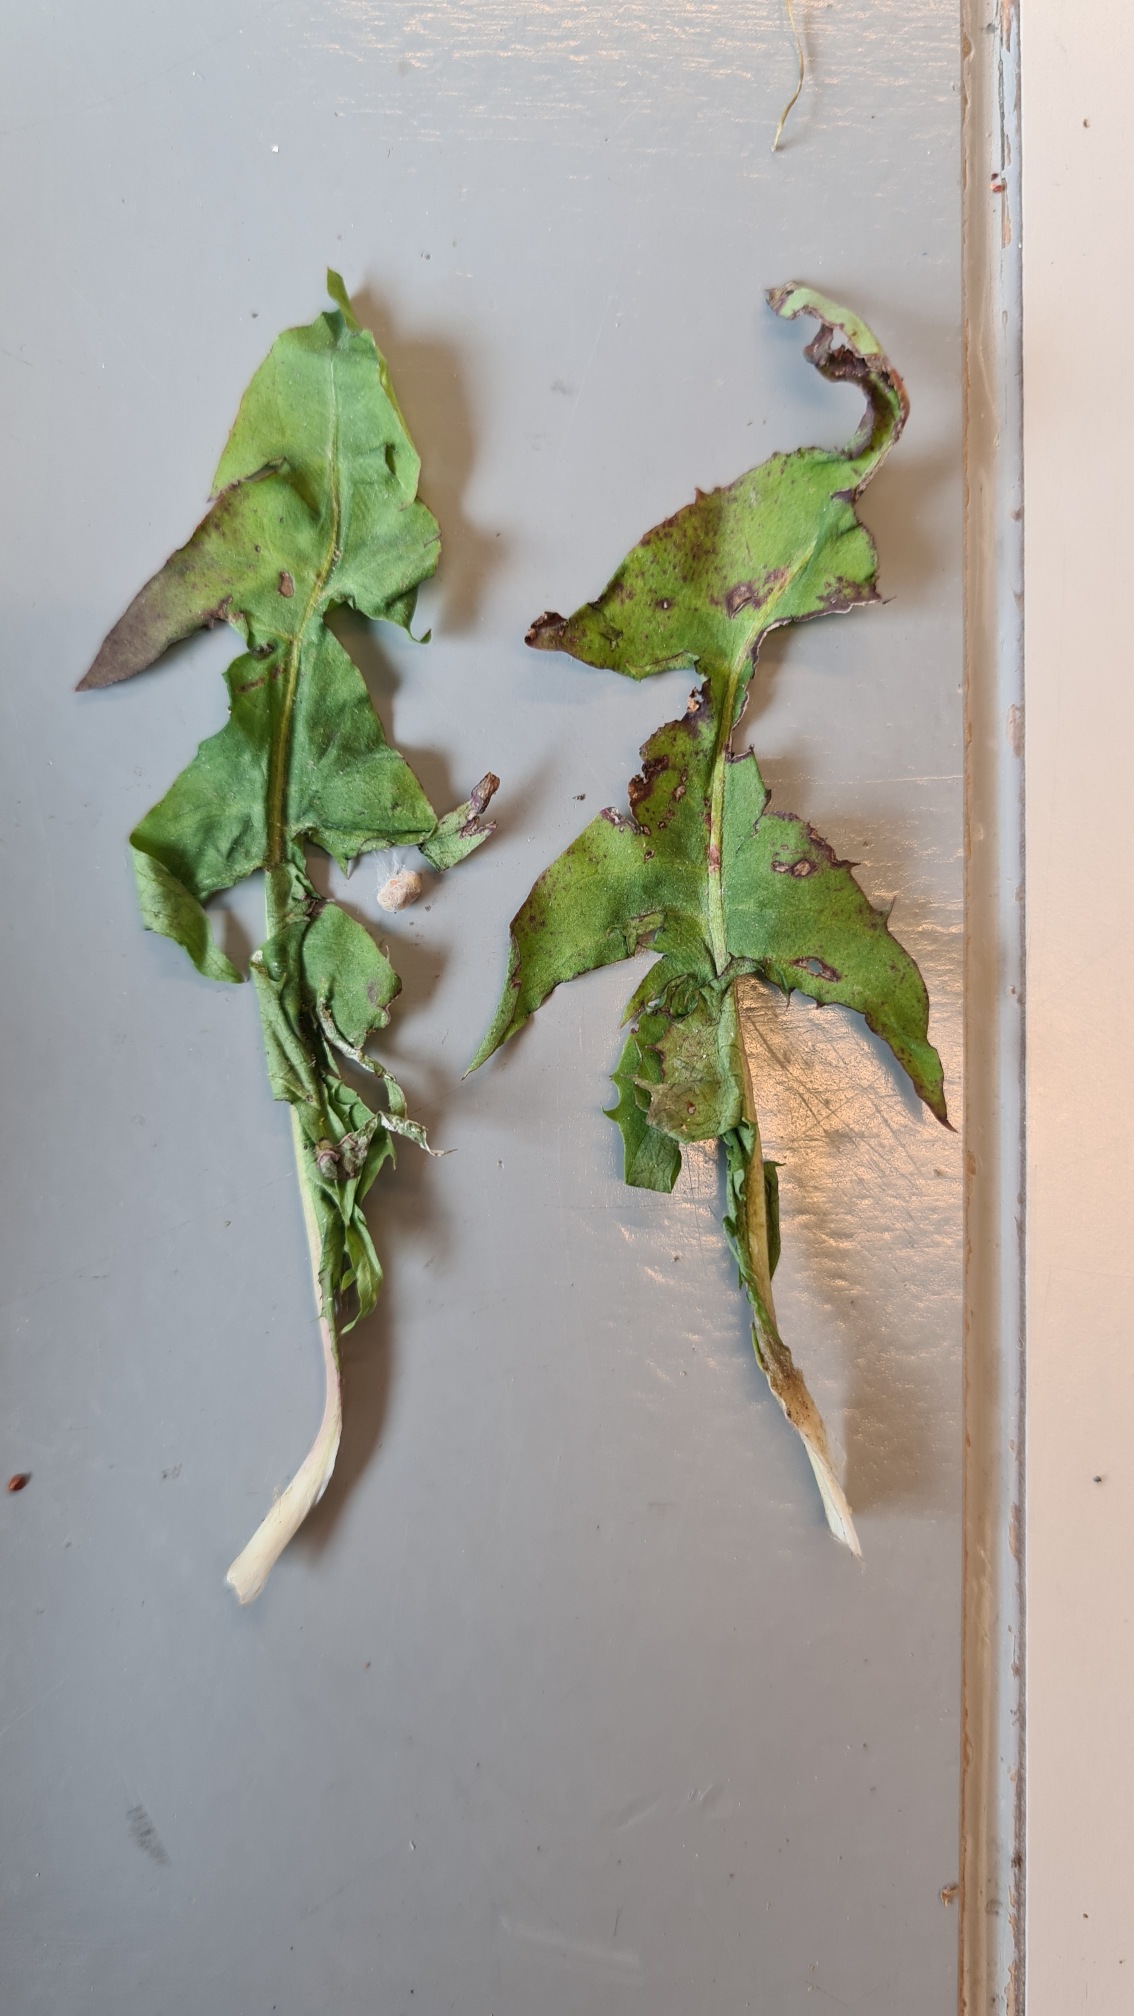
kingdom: Plantae
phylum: Tracheophyta
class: Magnoliopsida
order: Asterales
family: Asteraceae
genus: Taraxacum
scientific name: Taraxacum
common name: Mælkebøtteslægten
